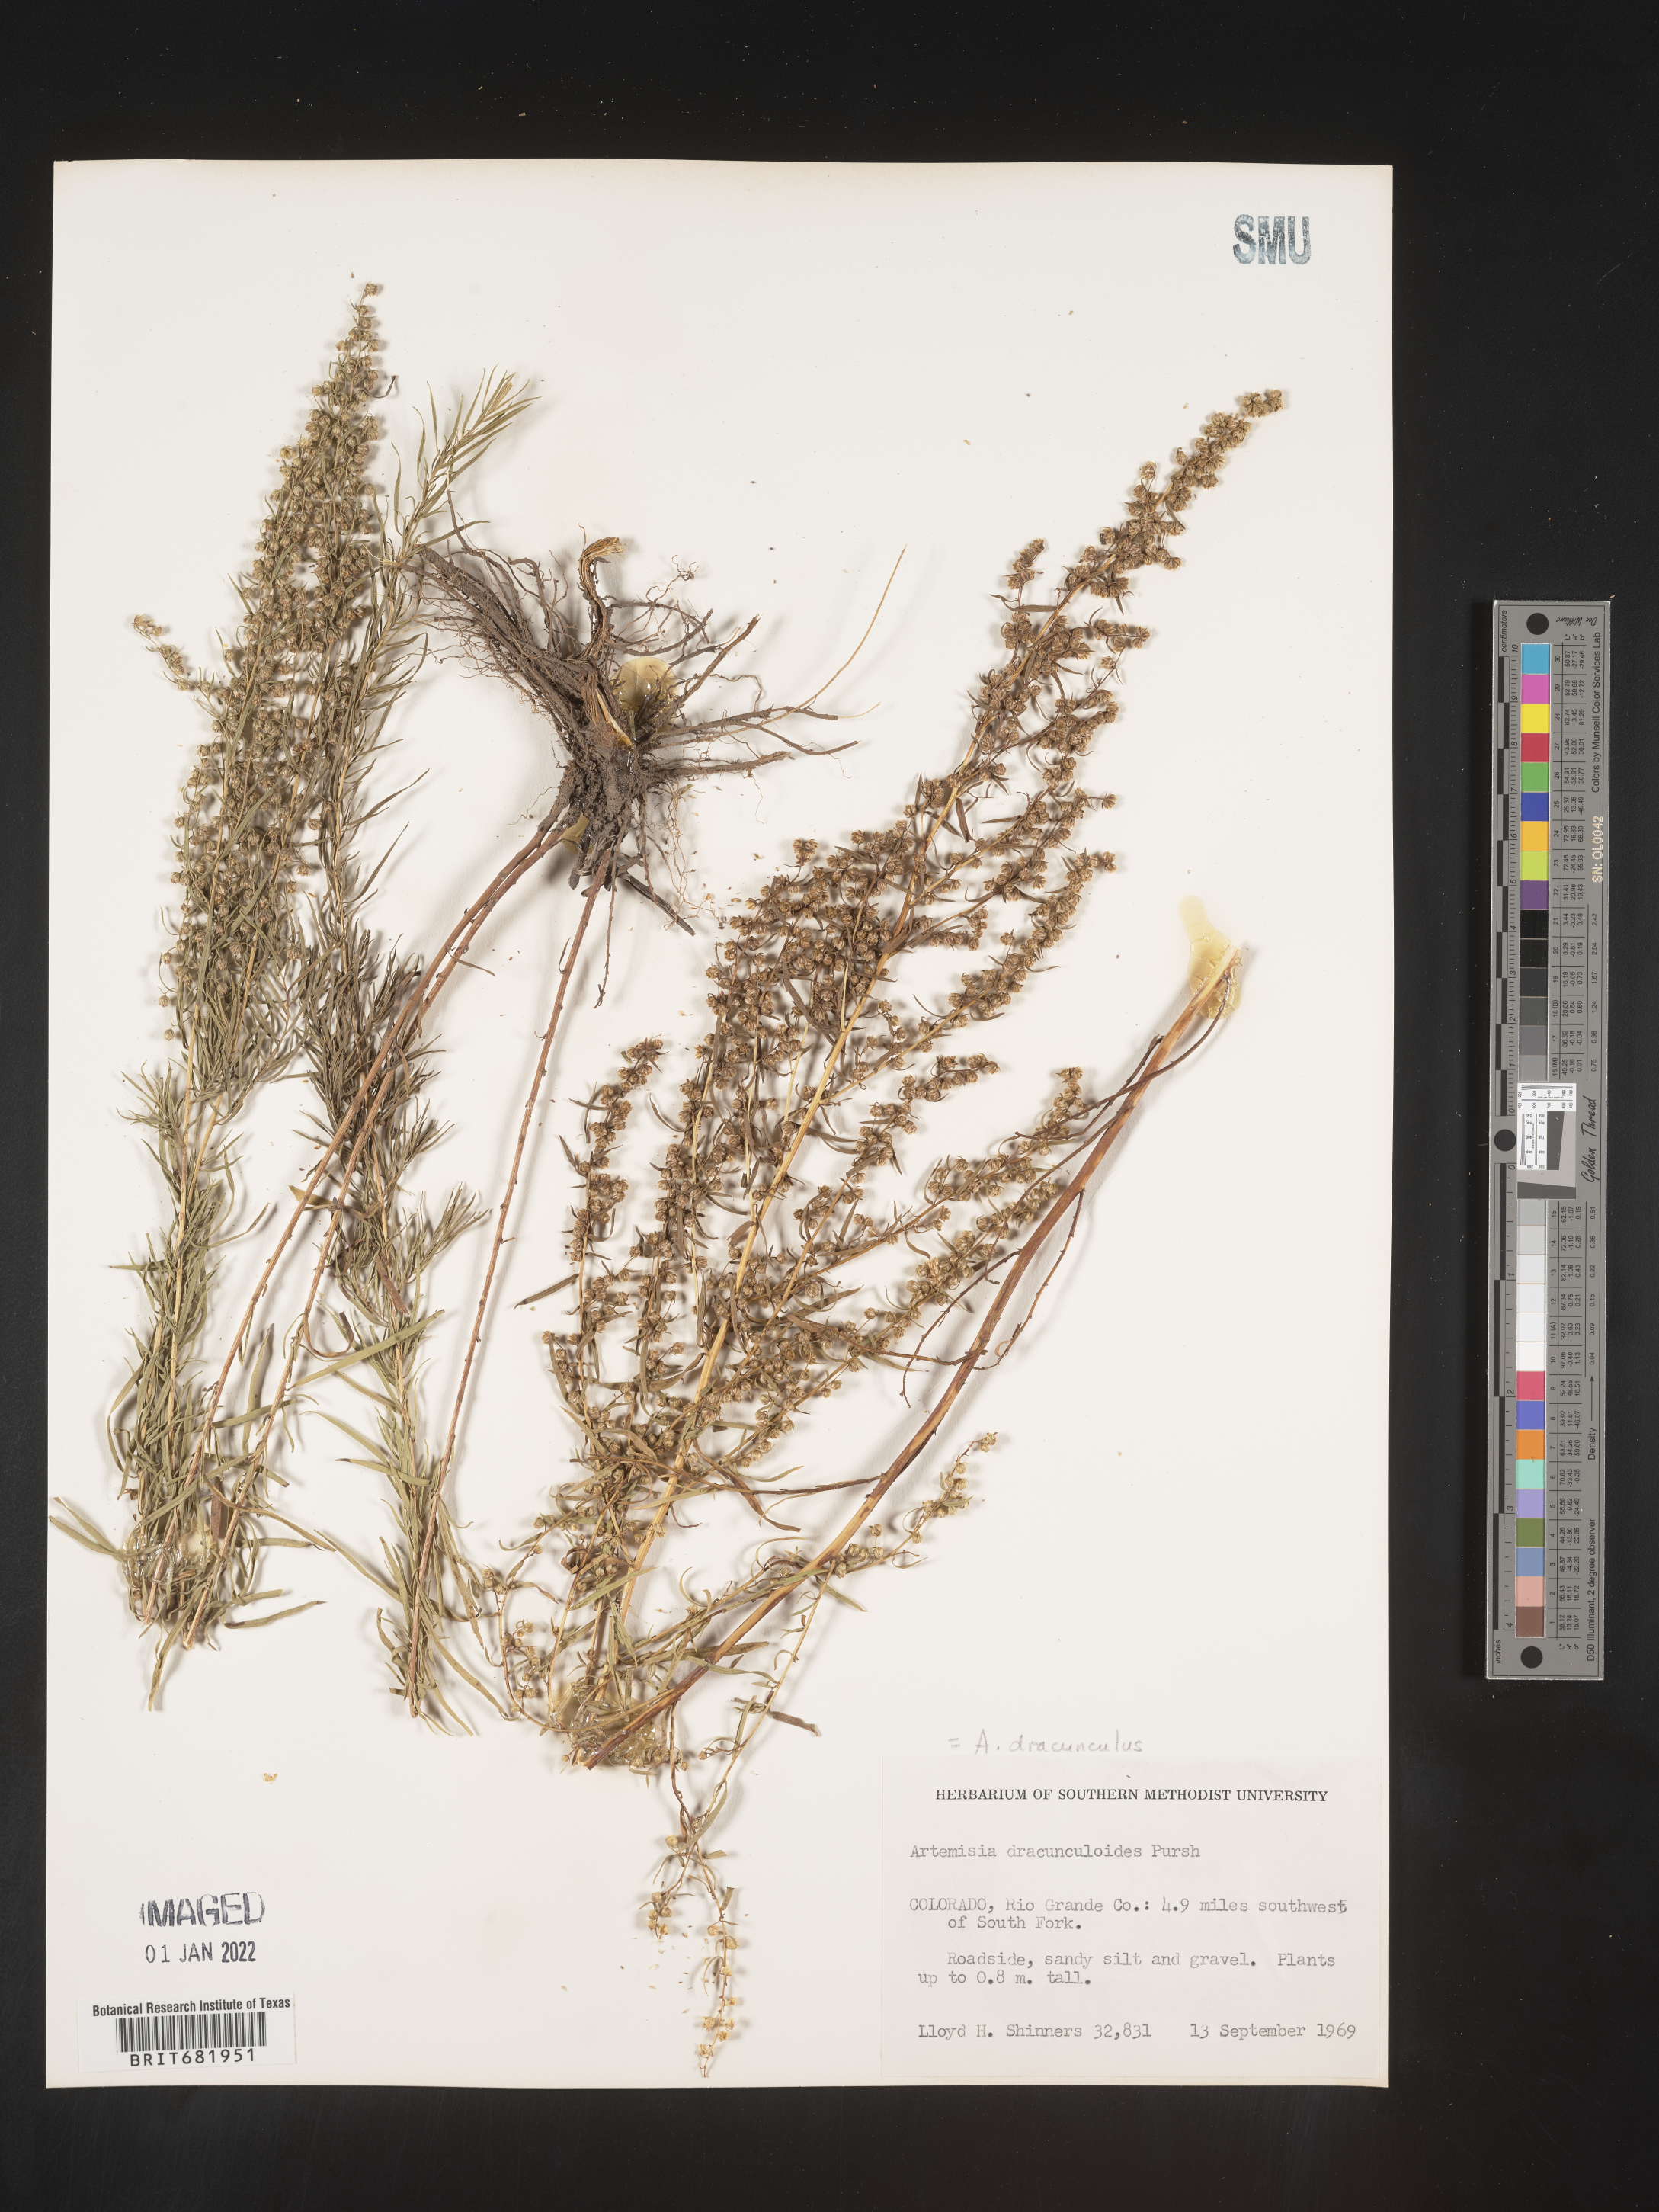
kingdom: Plantae
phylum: Tracheophyta
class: Magnoliopsida
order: Asterales
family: Asteraceae
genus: Artemisia
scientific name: Artemisia dracunculus
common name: Tarragon
